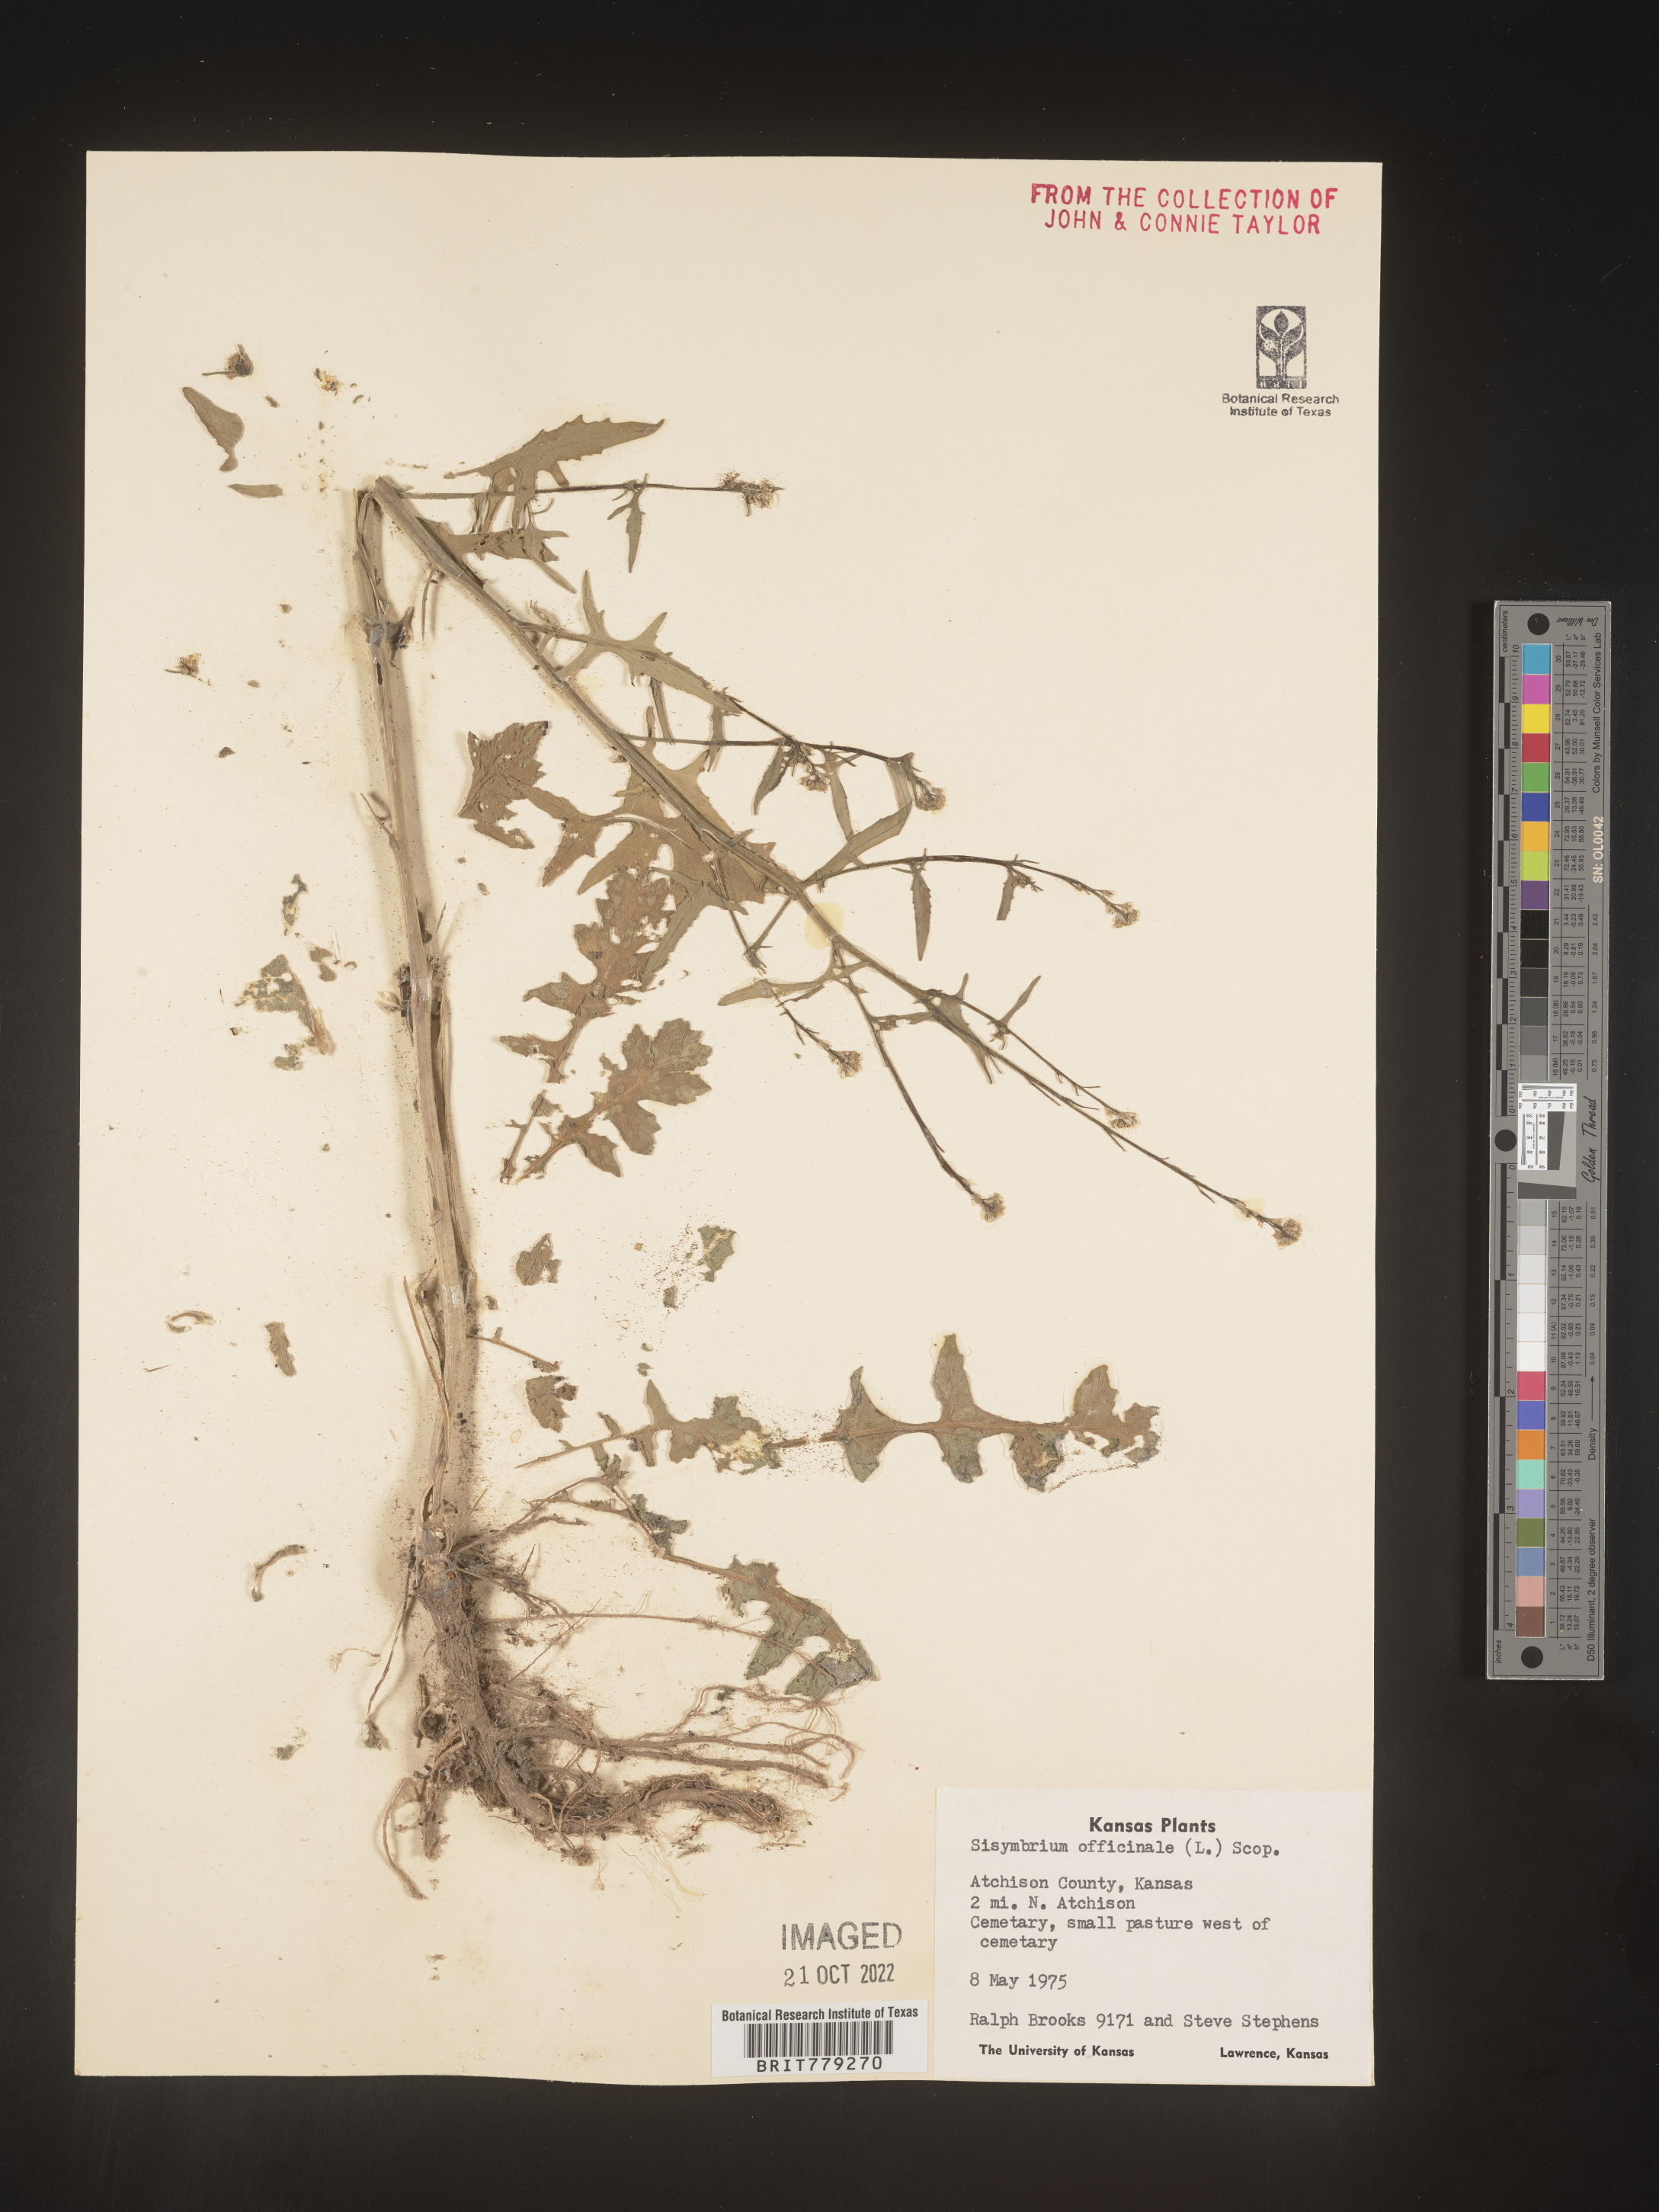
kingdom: Plantae
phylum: Tracheophyta
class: Magnoliopsida
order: Brassicales
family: Brassicaceae
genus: Sisymbrium
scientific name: Sisymbrium officinale
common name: Hedge mustard
